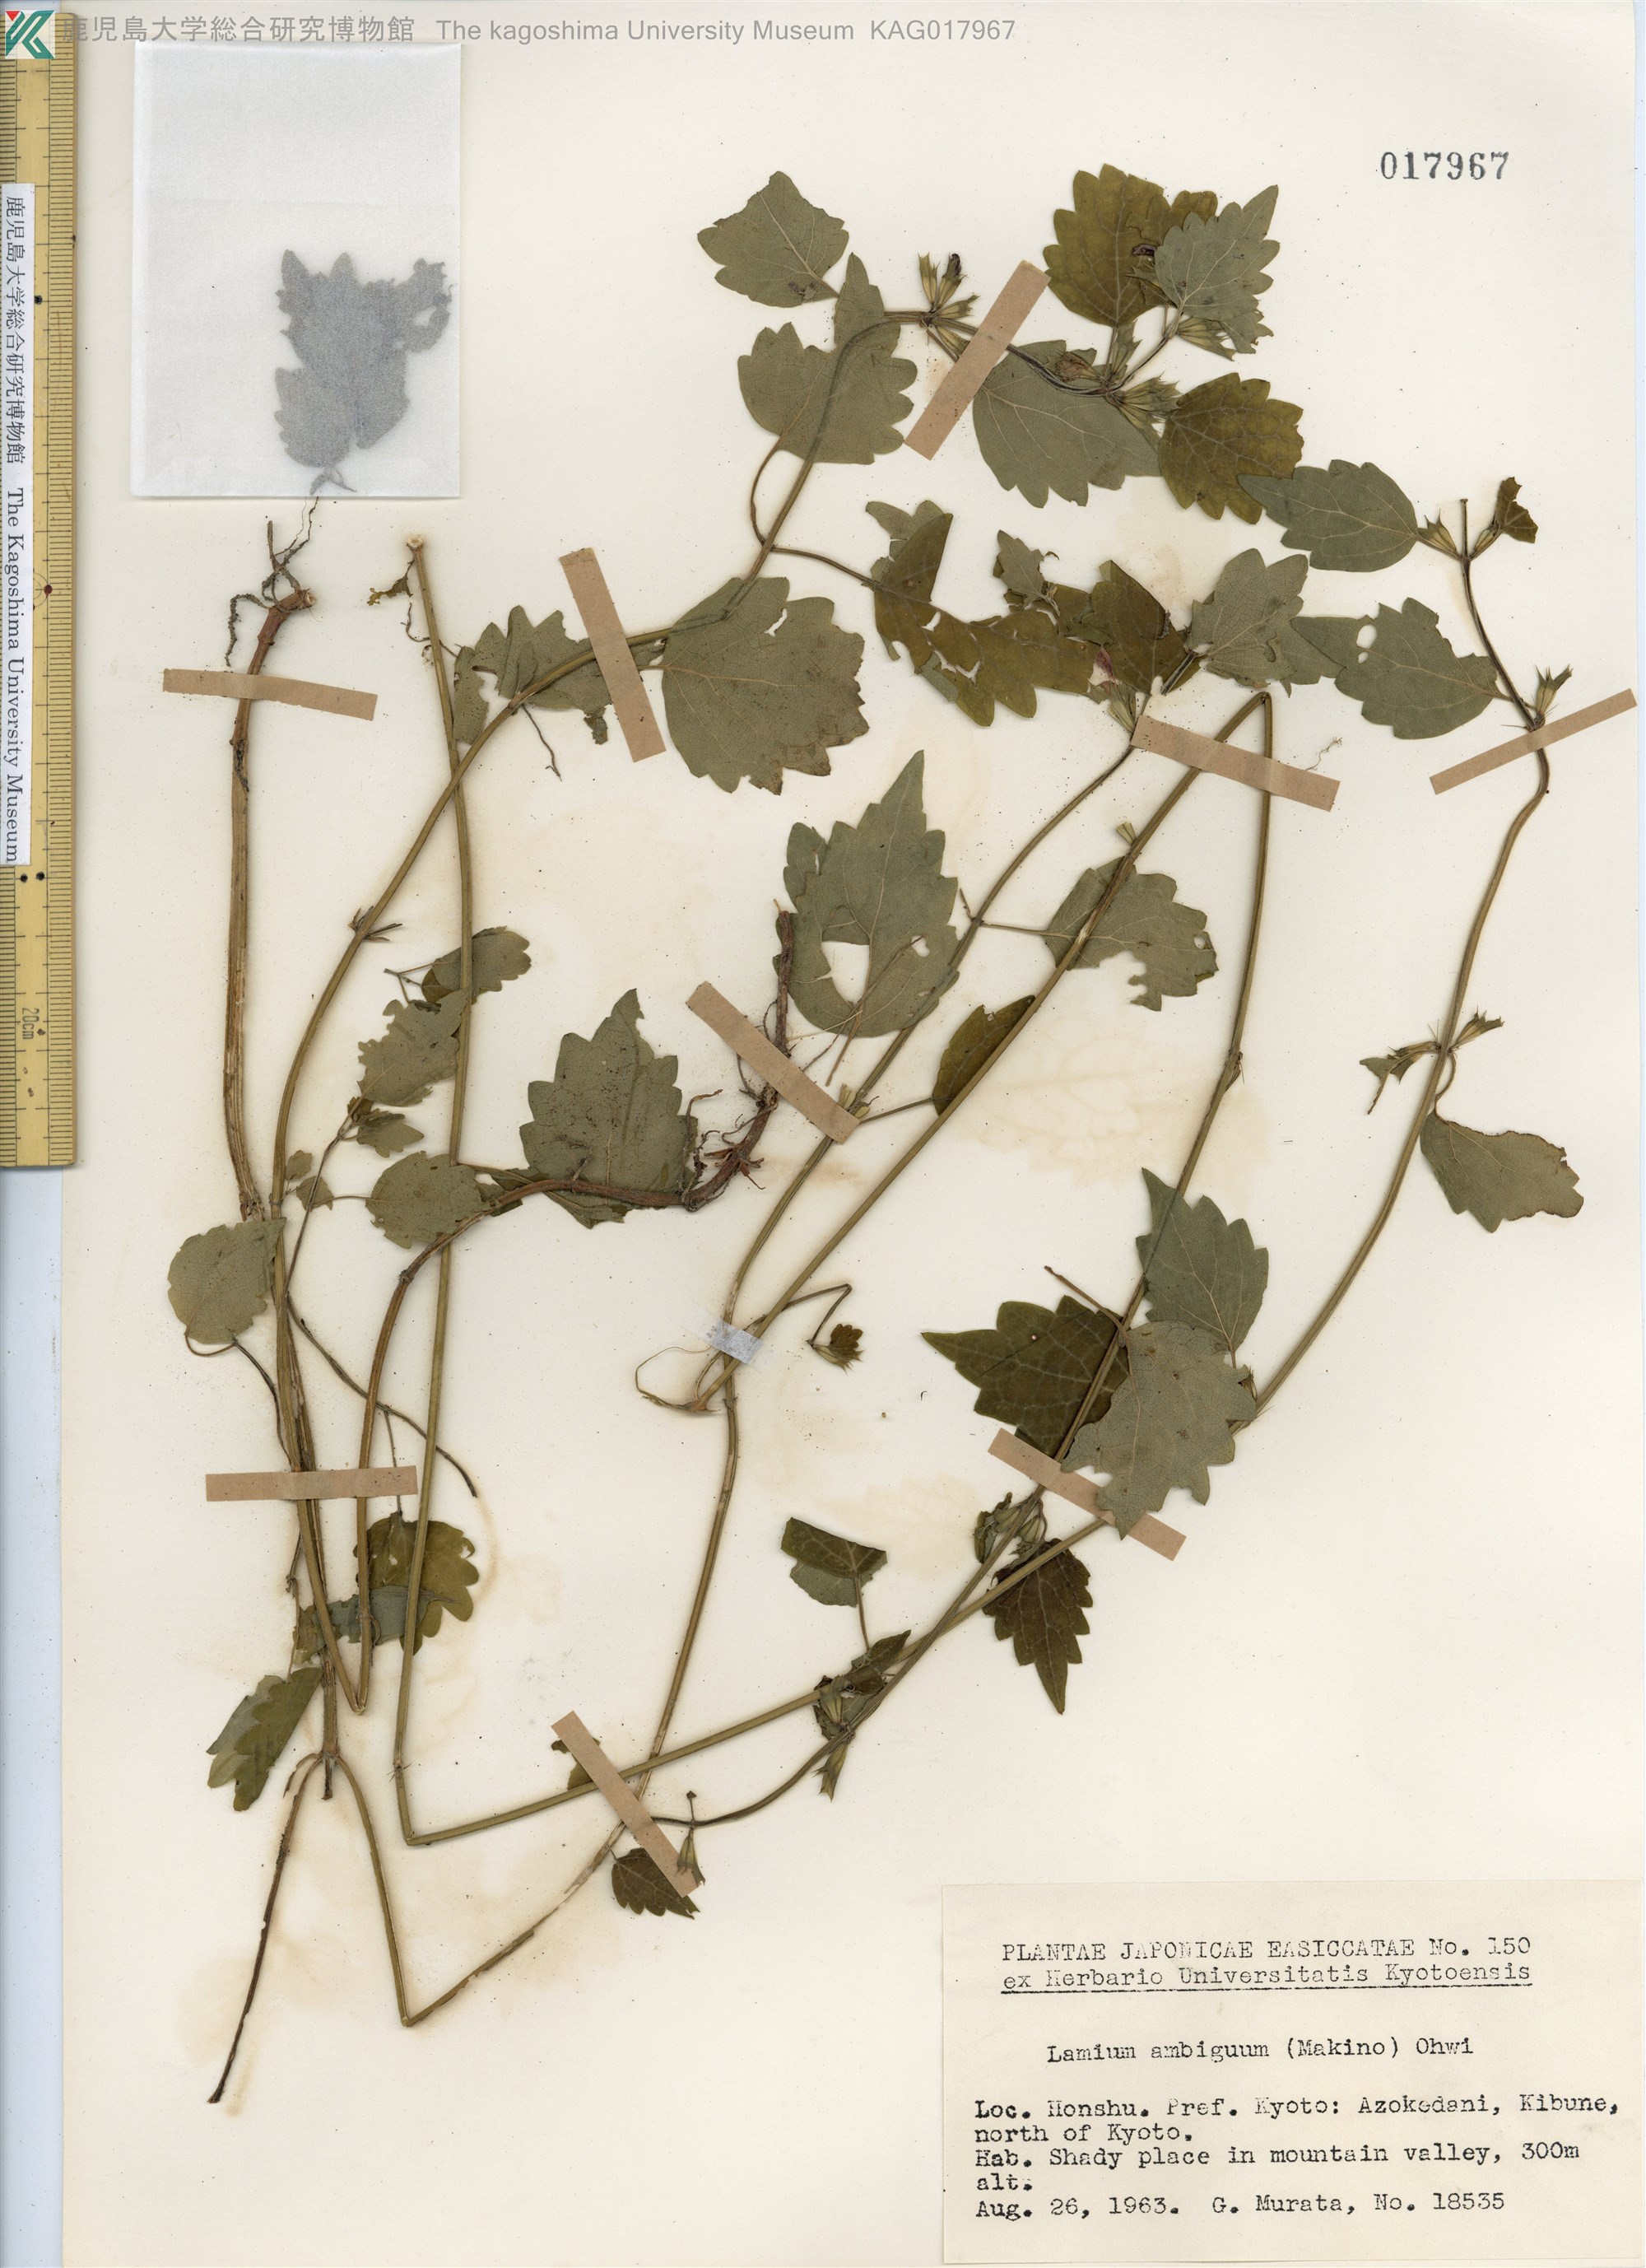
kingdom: Plantae
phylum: Tracheophyta
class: Magnoliopsida
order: Lamiales
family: Lamiaceae
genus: Loxocalyx
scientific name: Loxocalyx ambiguus
